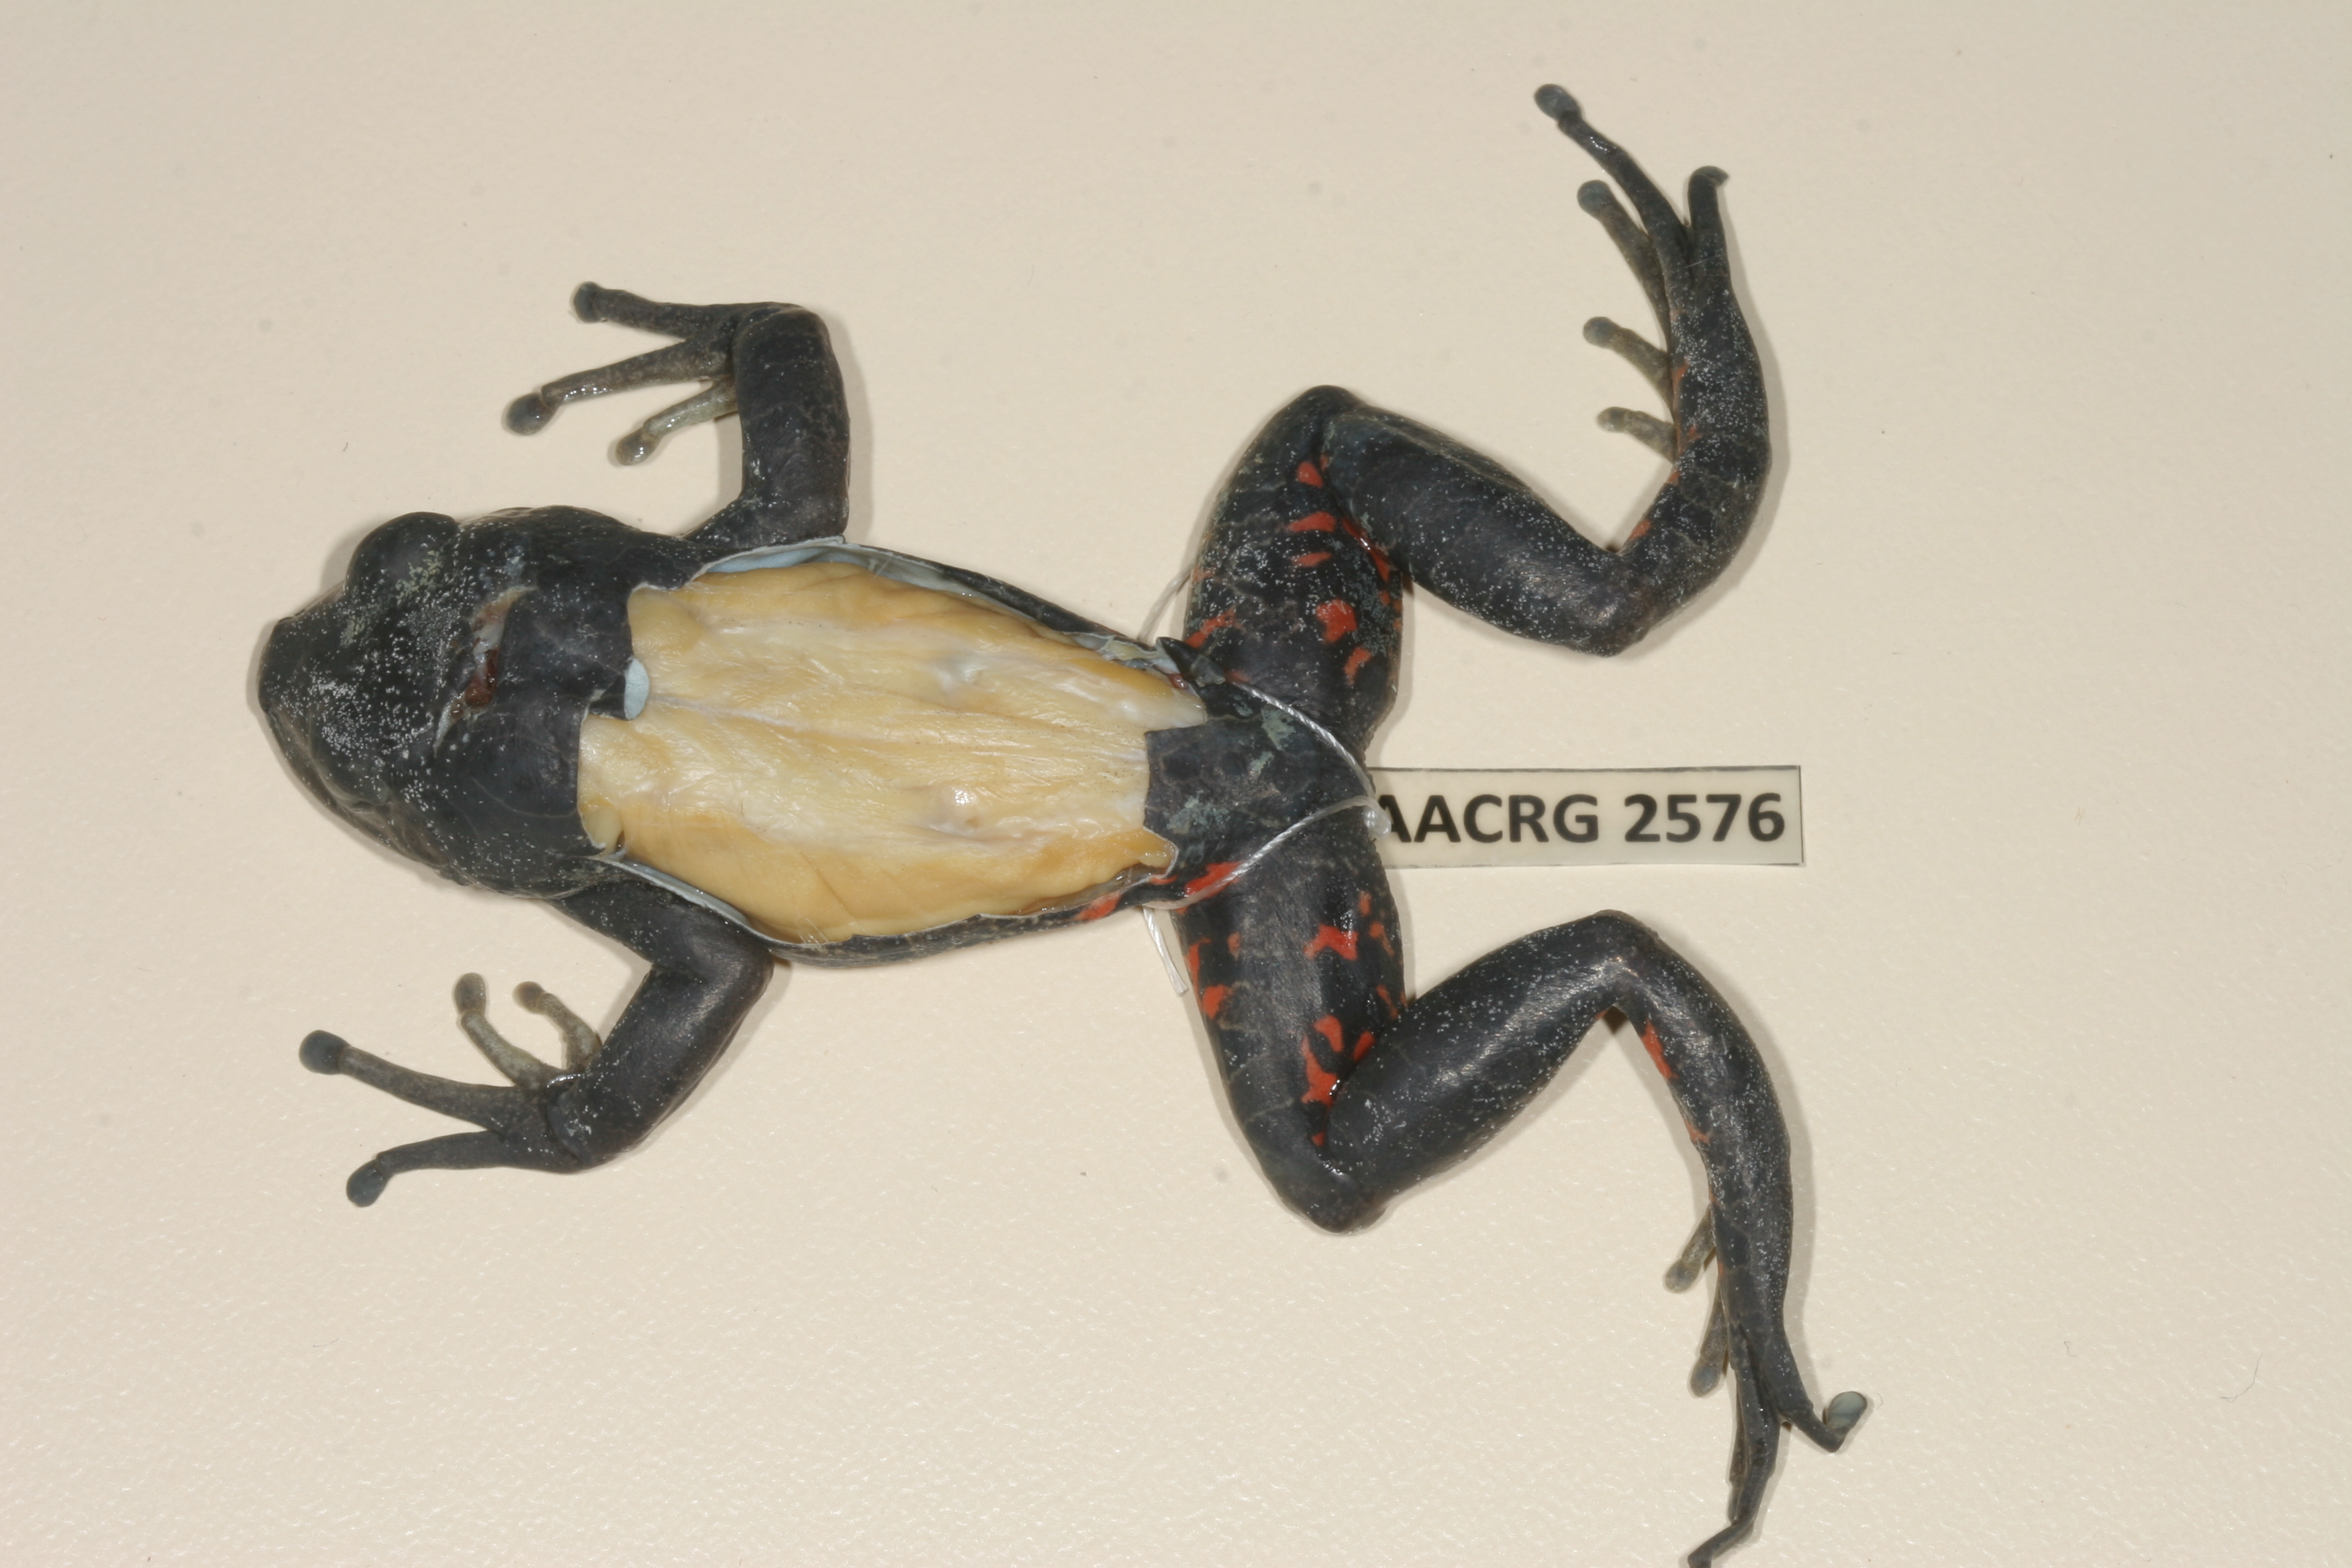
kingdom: Animalia
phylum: Chordata
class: Amphibia
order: Anura
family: Hyperoliidae
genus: Phlyctimantis
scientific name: Phlyctimantis maculatus
